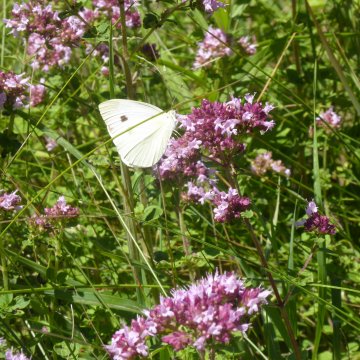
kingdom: Animalia
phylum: Arthropoda
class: Insecta
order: Lepidoptera
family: Pieridae
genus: Pieris
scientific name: Pieris rapae
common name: Cabbage White
